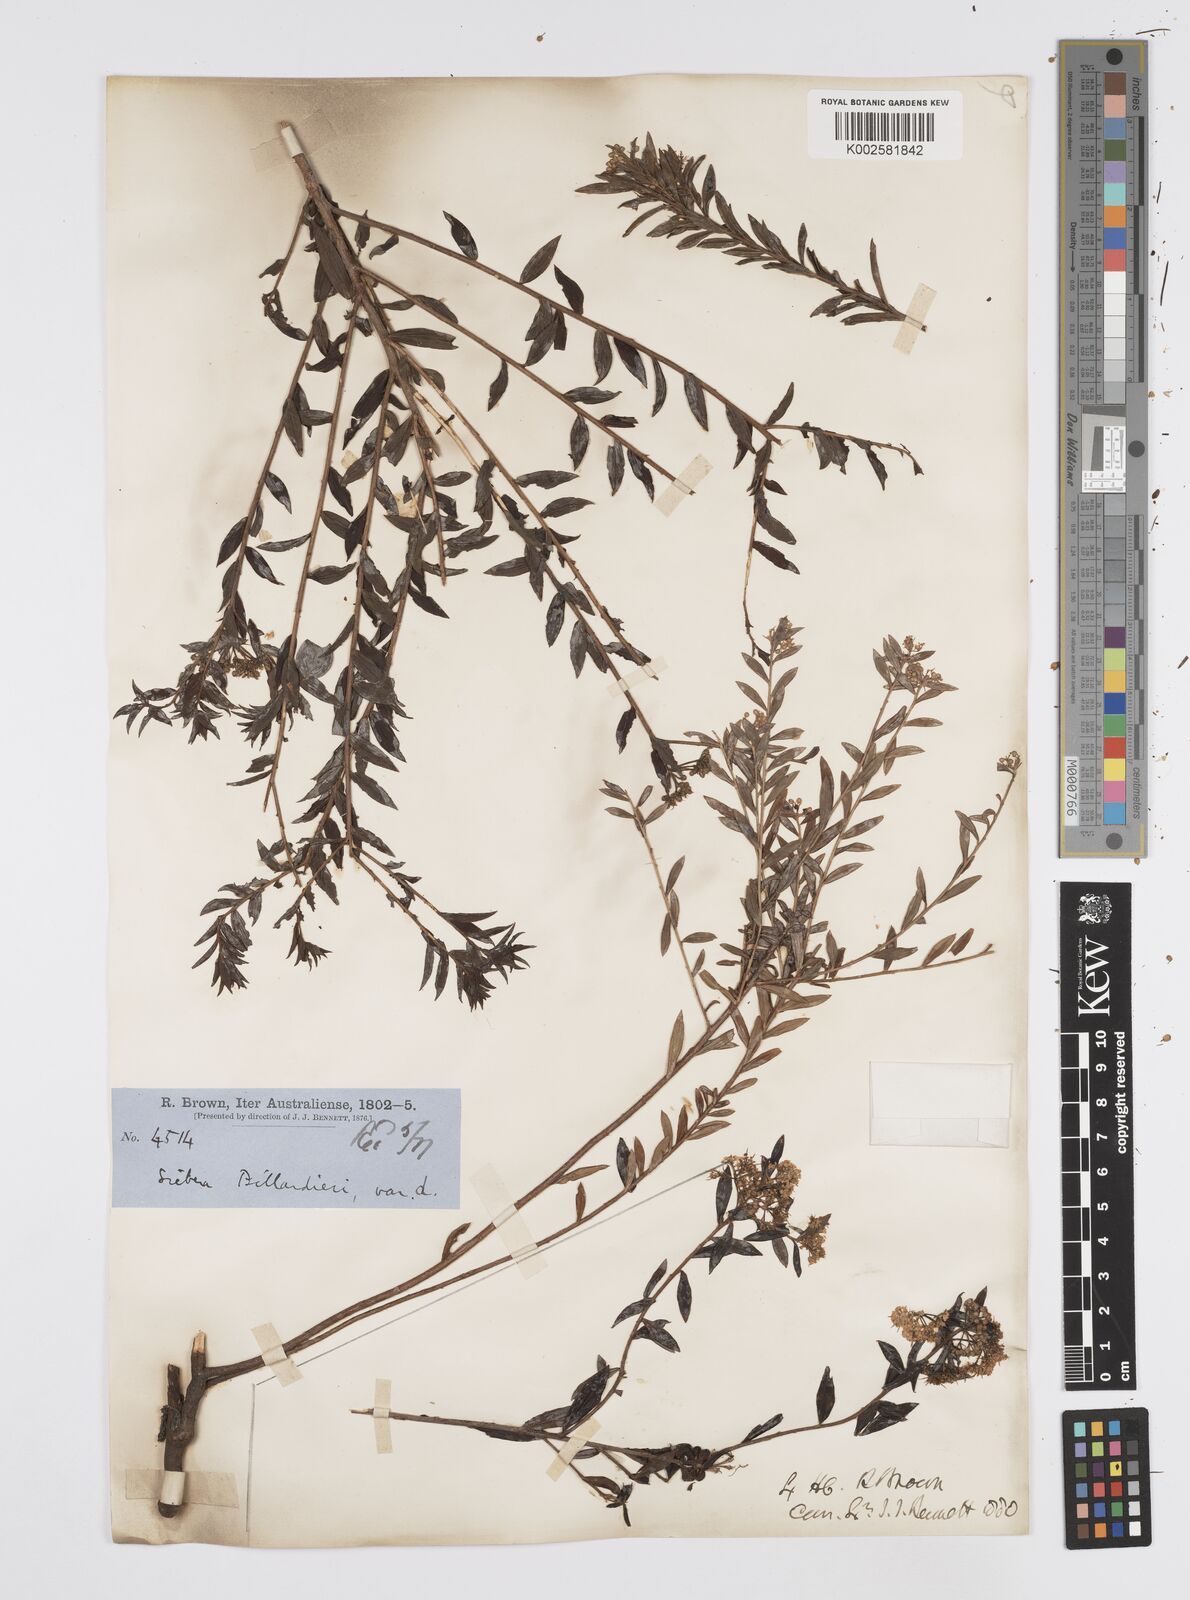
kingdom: Plantae
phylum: Tracheophyta
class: Magnoliopsida
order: Apiales
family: Apiaceae
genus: Platysace
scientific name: Platysace lanceolata
